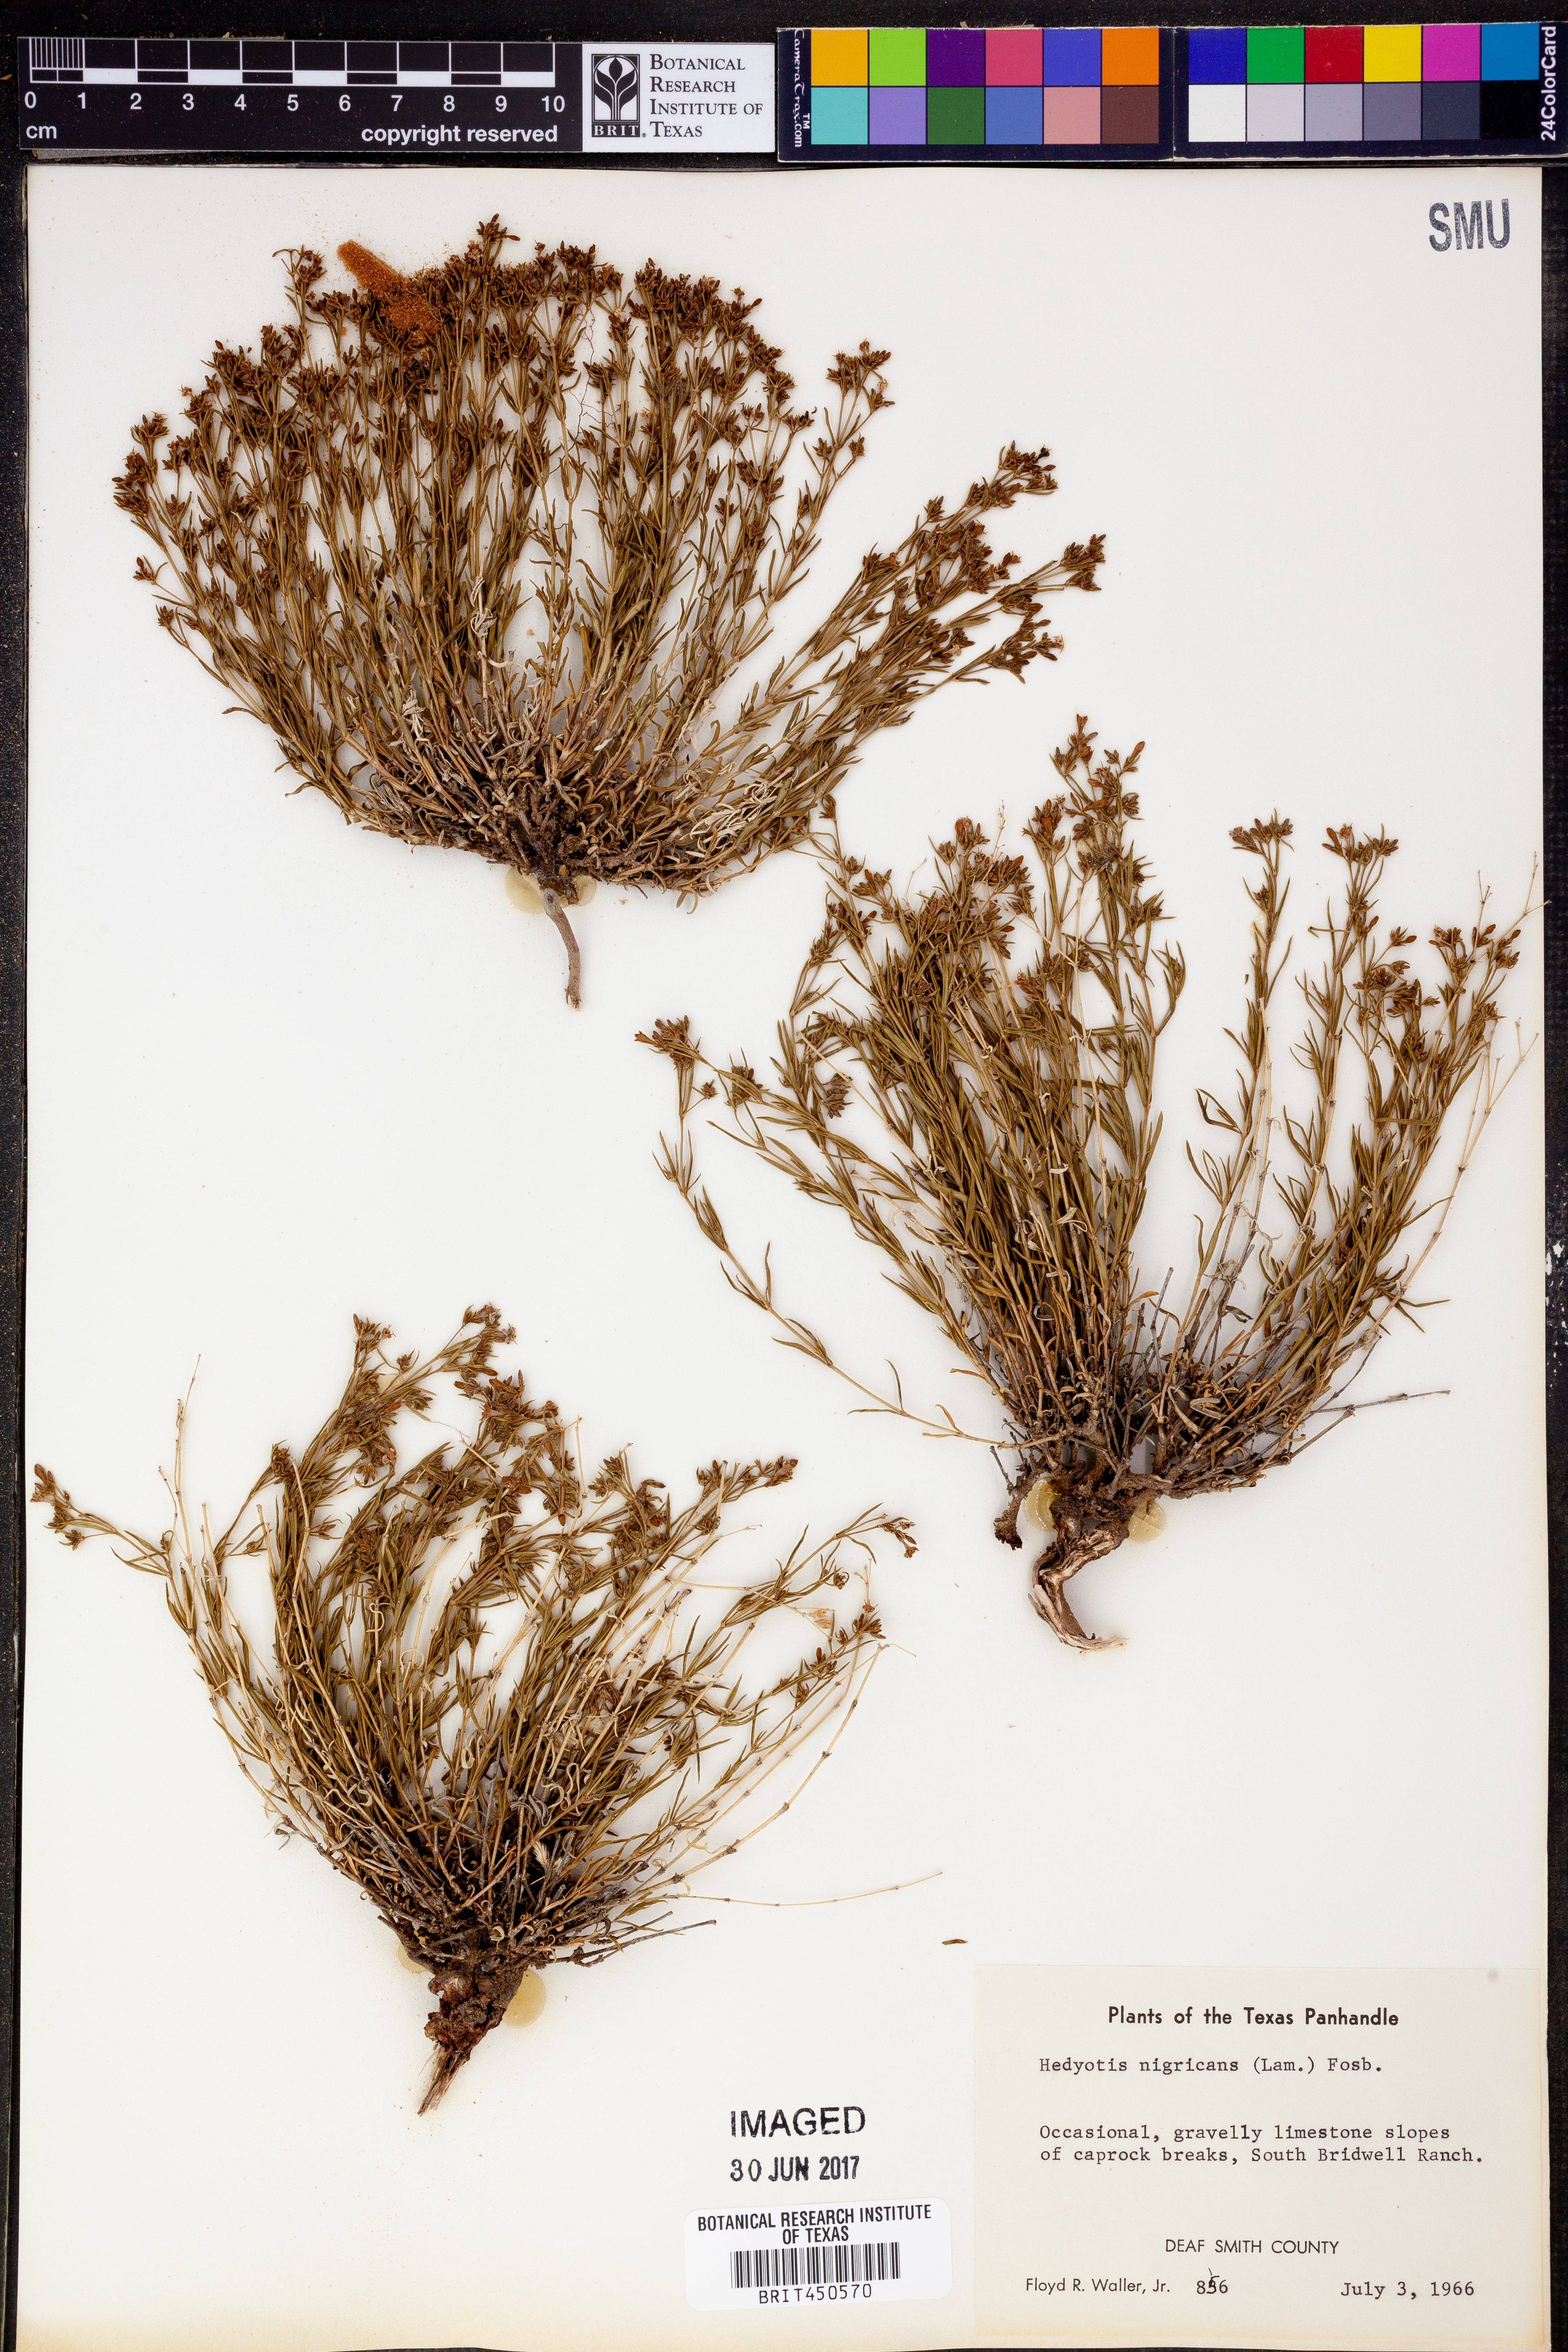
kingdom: Plantae
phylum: Tracheophyta
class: Magnoliopsida
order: Gentianales
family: Rubiaceae
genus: Stenaria
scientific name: Stenaria nigricans
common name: Diamondflowers
